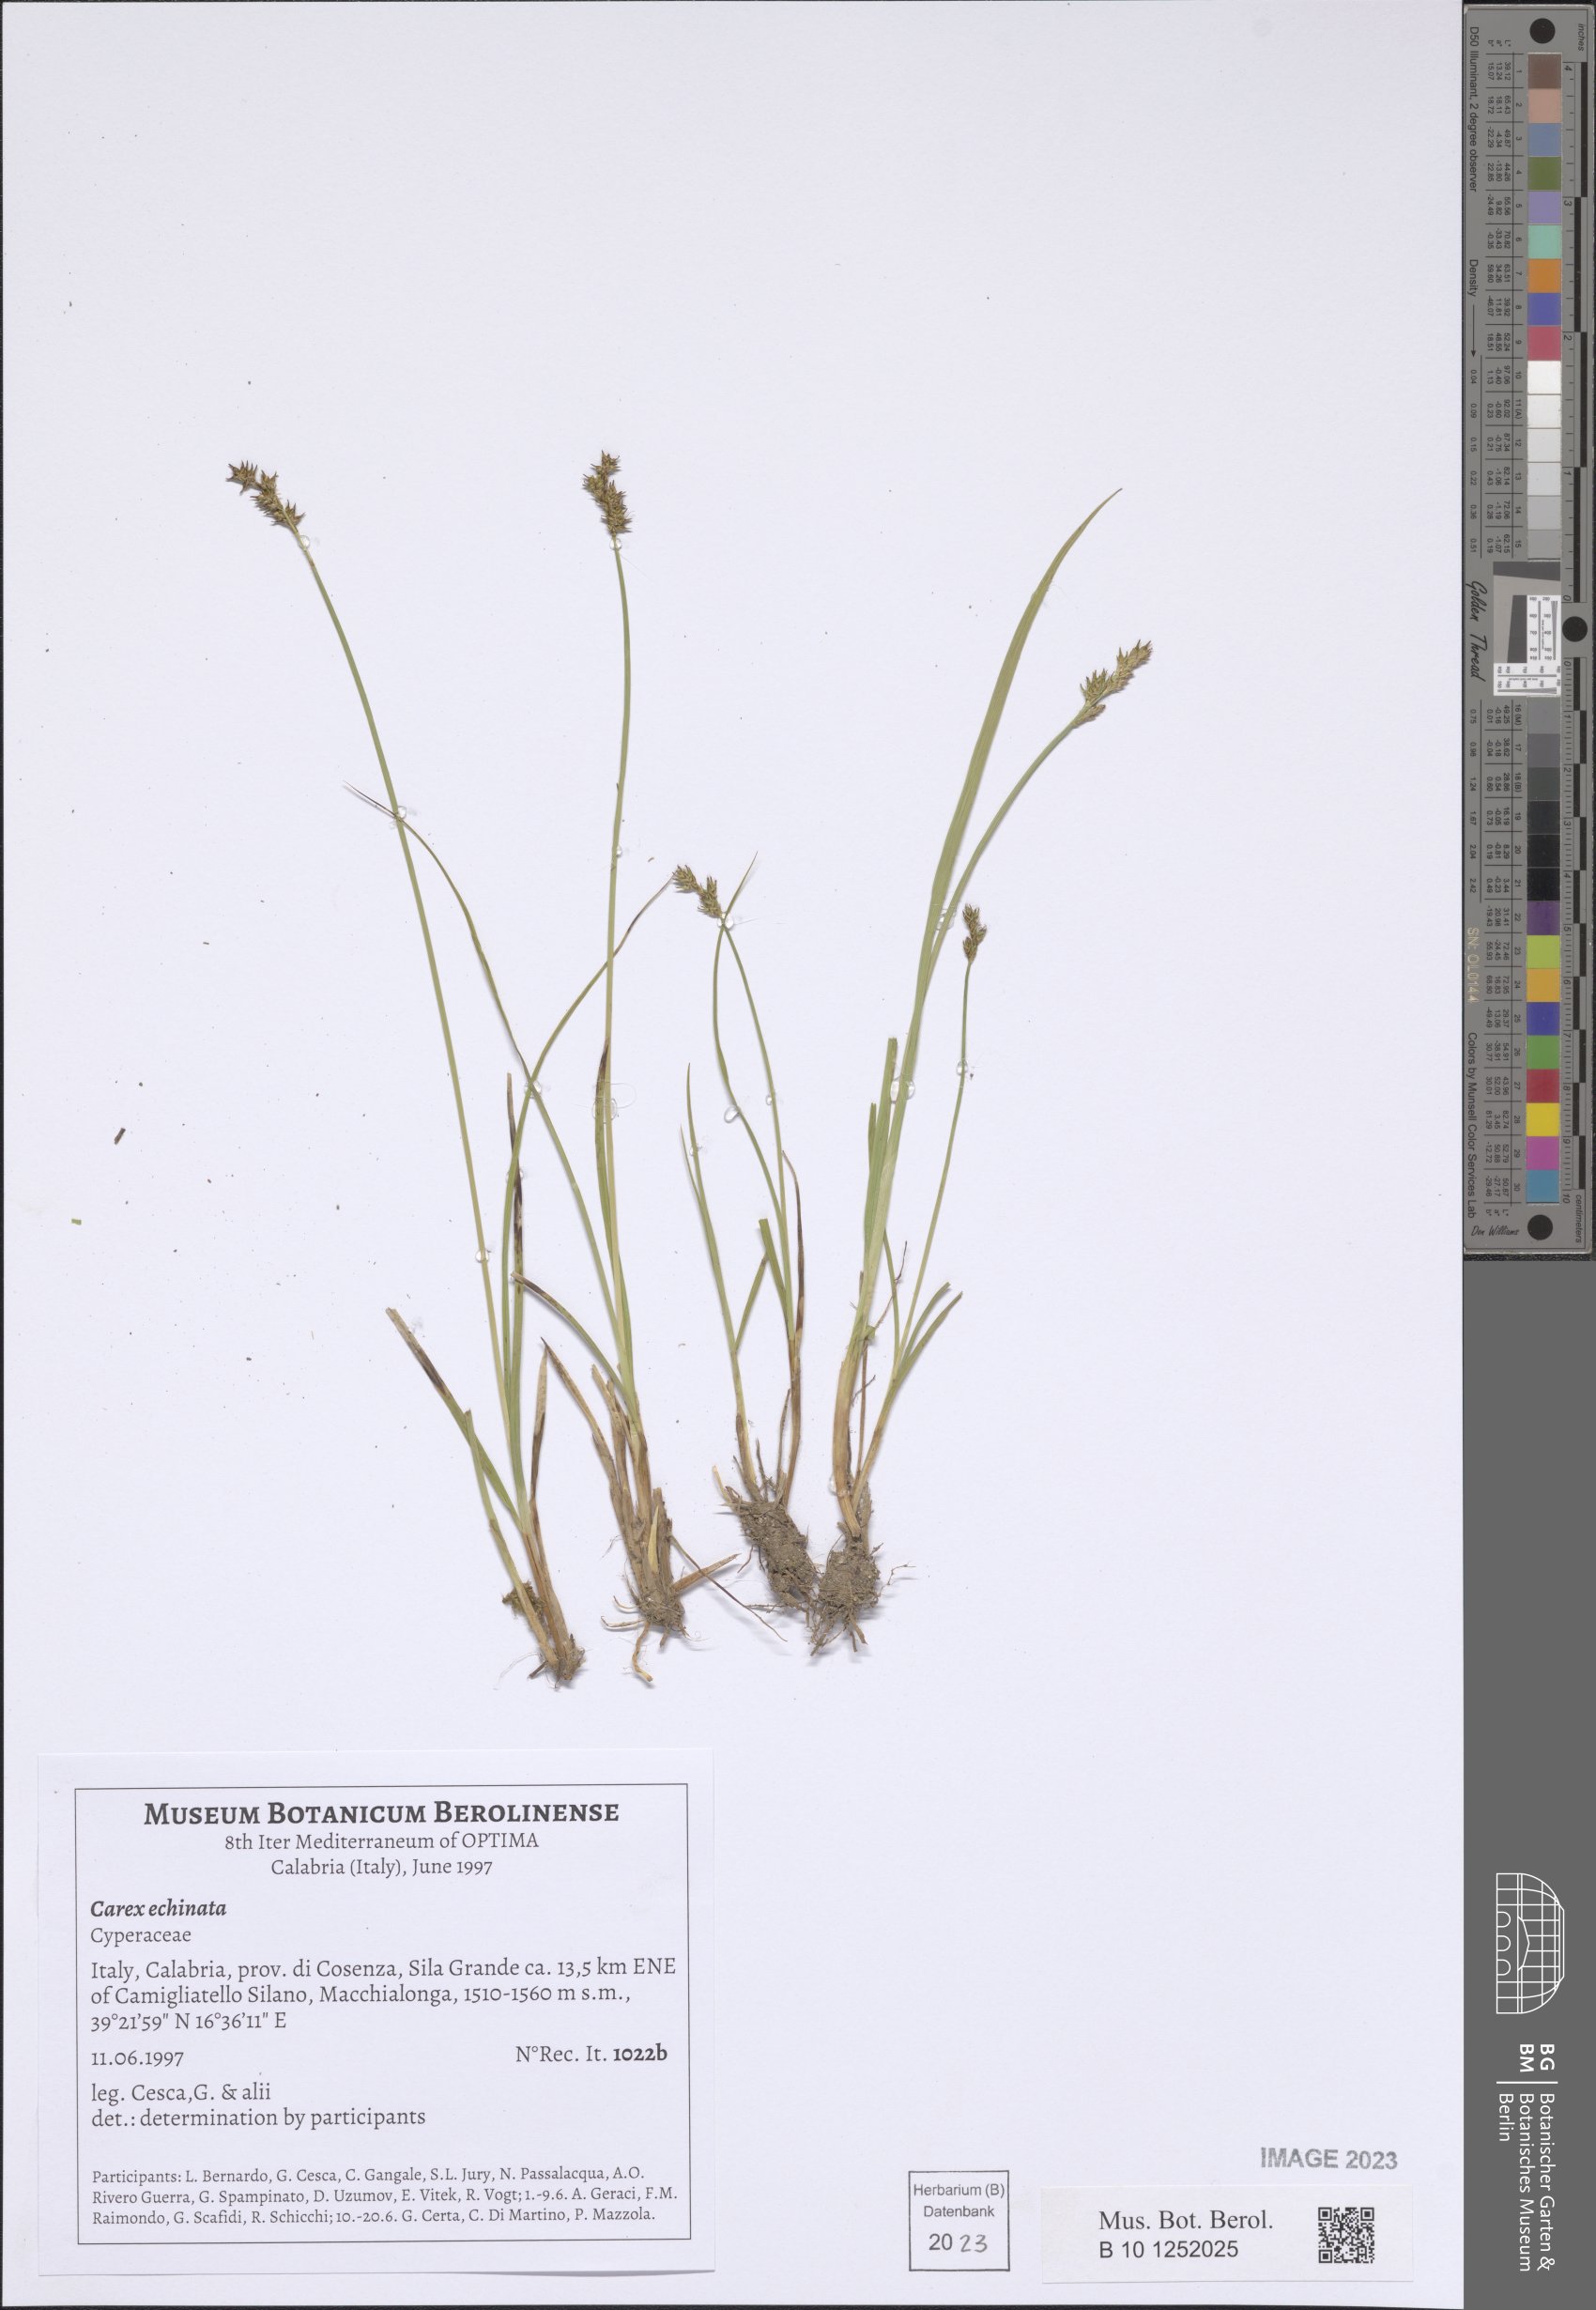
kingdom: Plantae
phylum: Tracheophyta
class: Liliopsida
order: Poales
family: Cyperaceae
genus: Carex
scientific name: Carex echinata
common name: Star sedge
